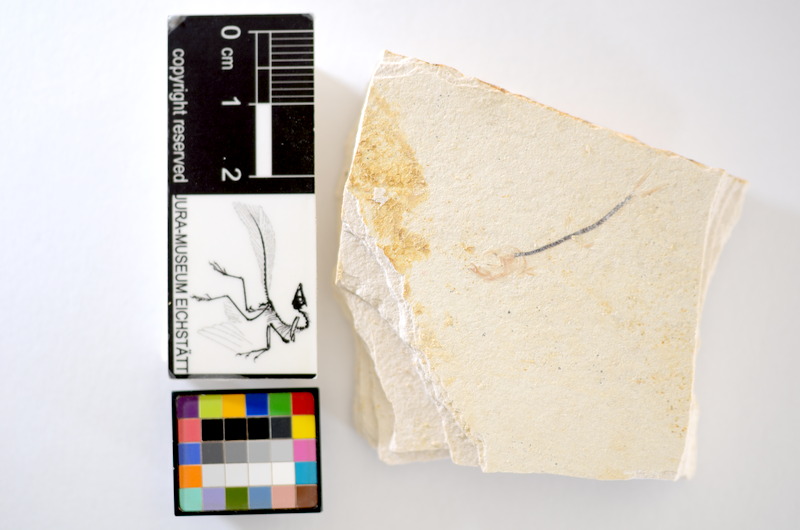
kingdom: Animalia
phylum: Chordata
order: Salmoniformes
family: Orthogonikleithridae
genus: Orthogonikleithrus
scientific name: Orthogonikleithrus hoelli
